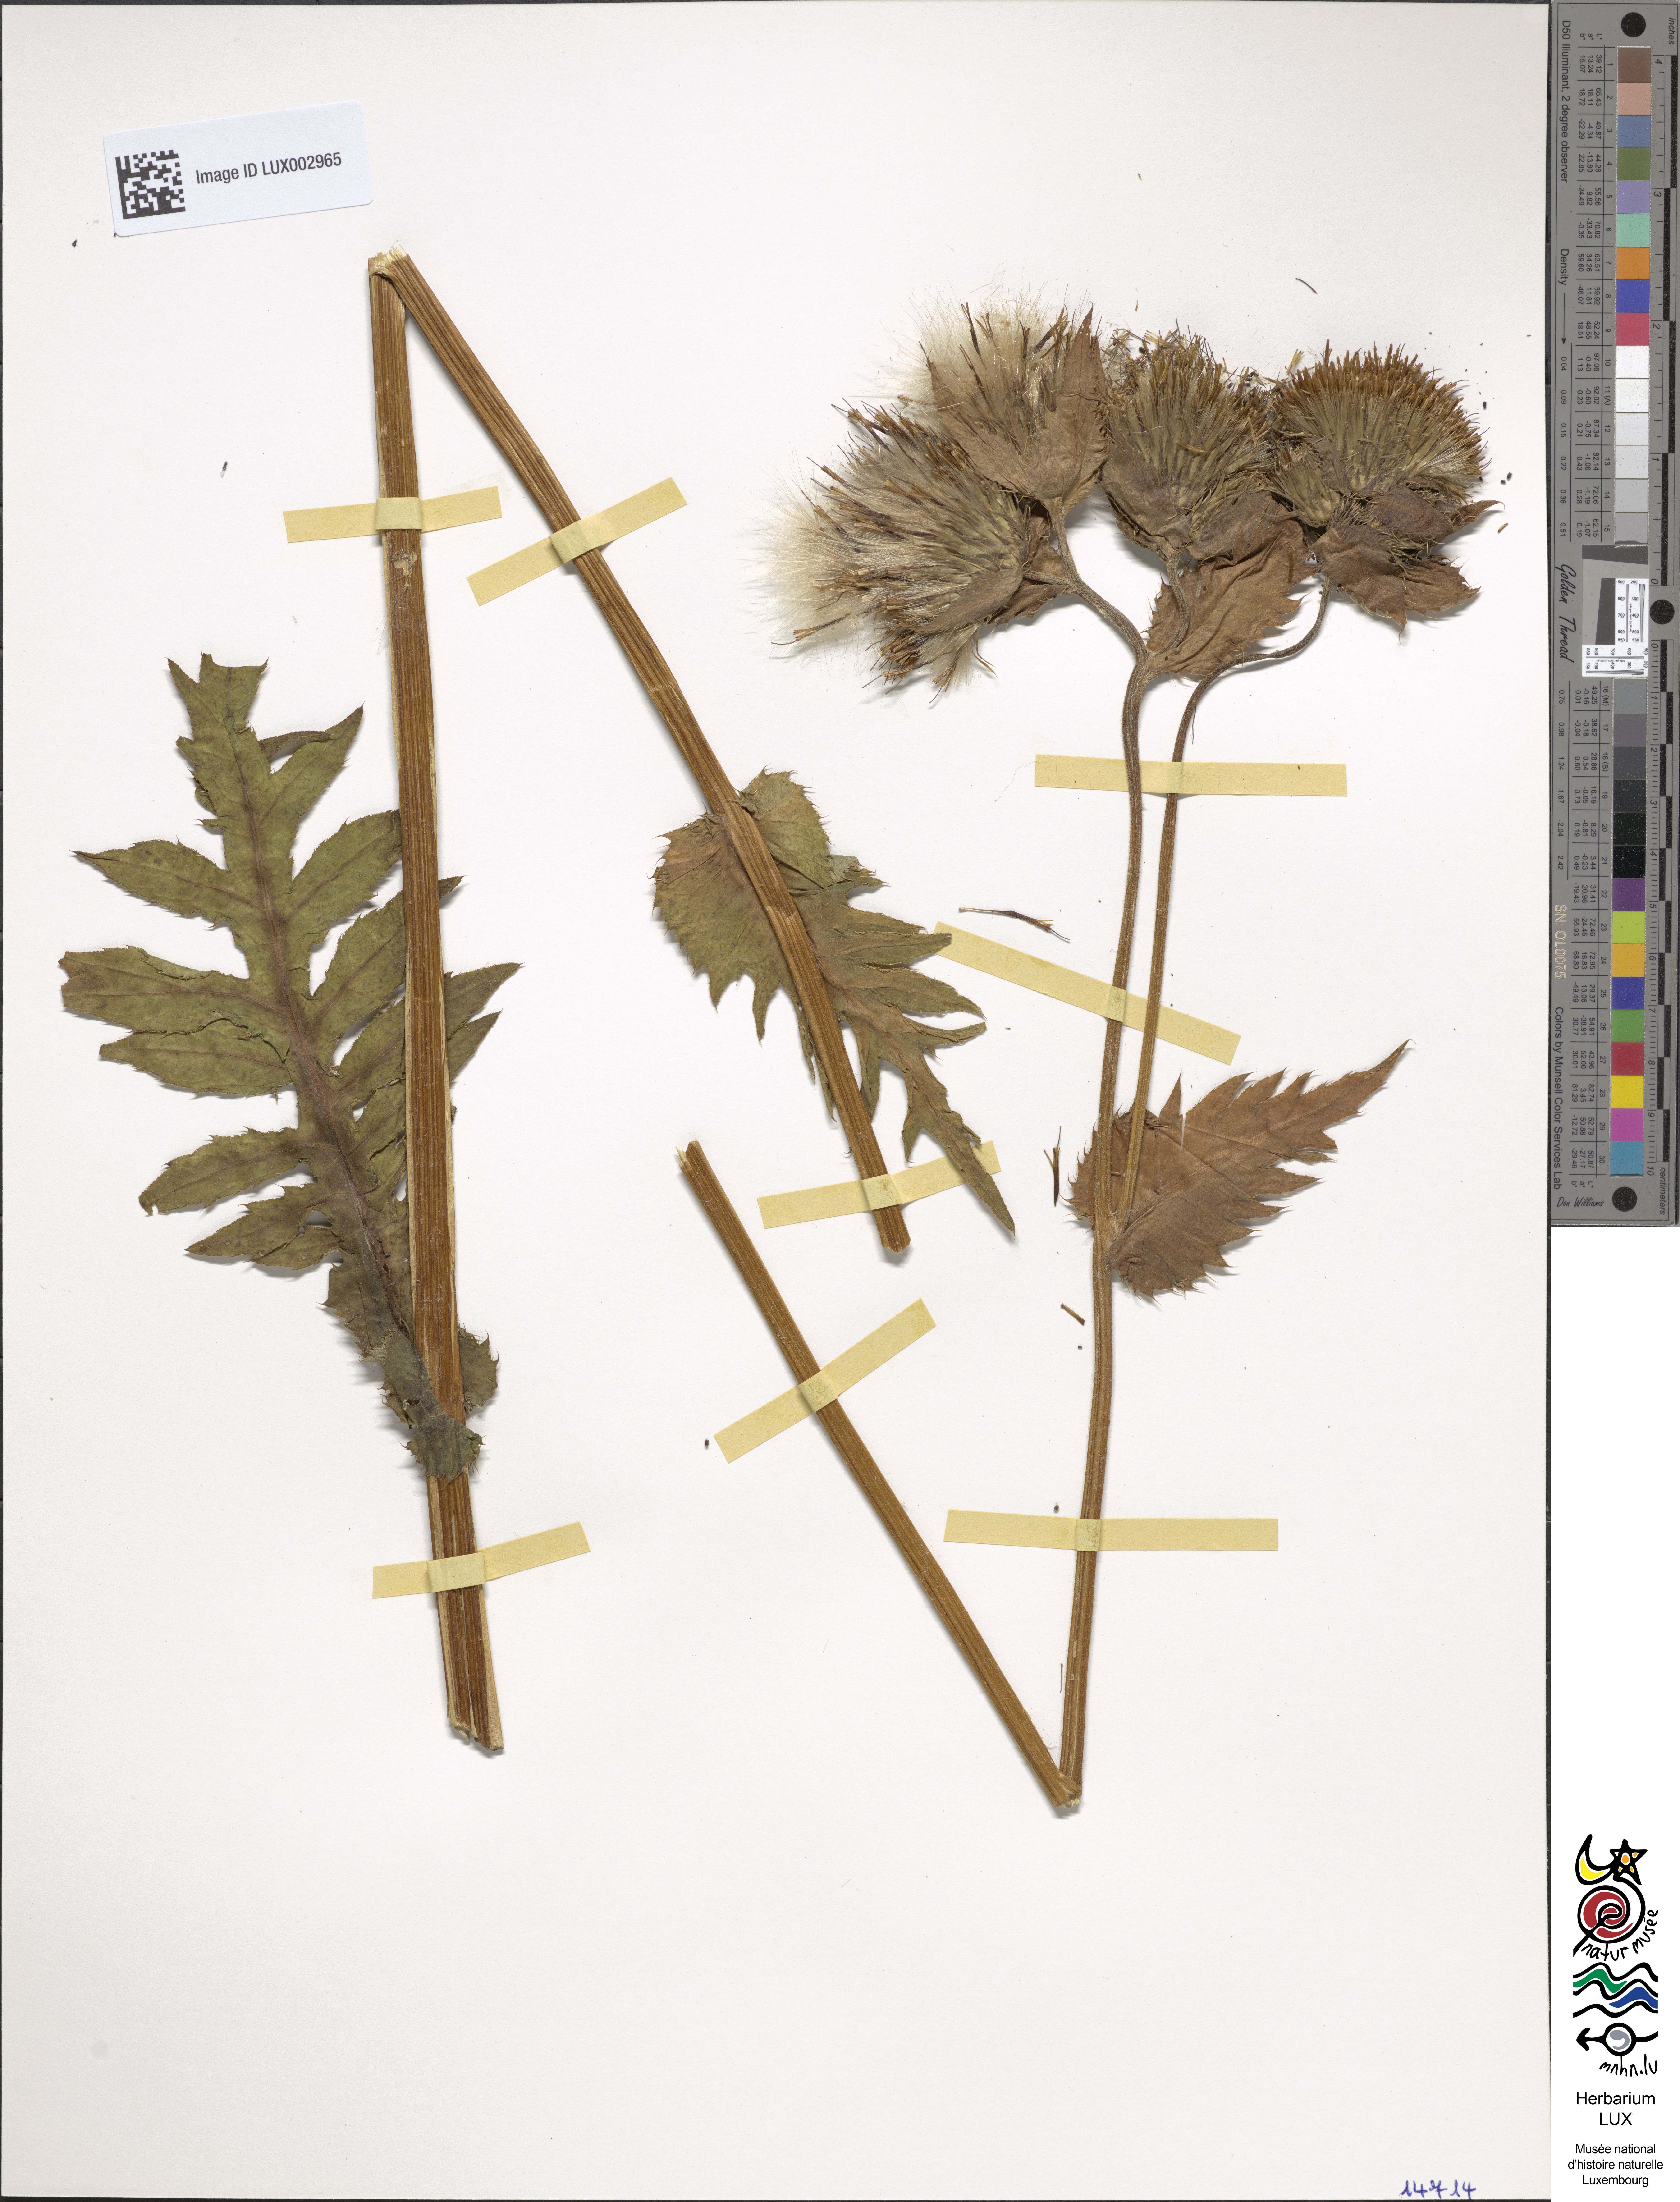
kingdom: Plantae
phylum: Tracheophyta
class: Magnoliopsida
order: Asterales
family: Asteraceae
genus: Cirsium
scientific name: Cirsium oleraceum
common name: Cabbage thistle
